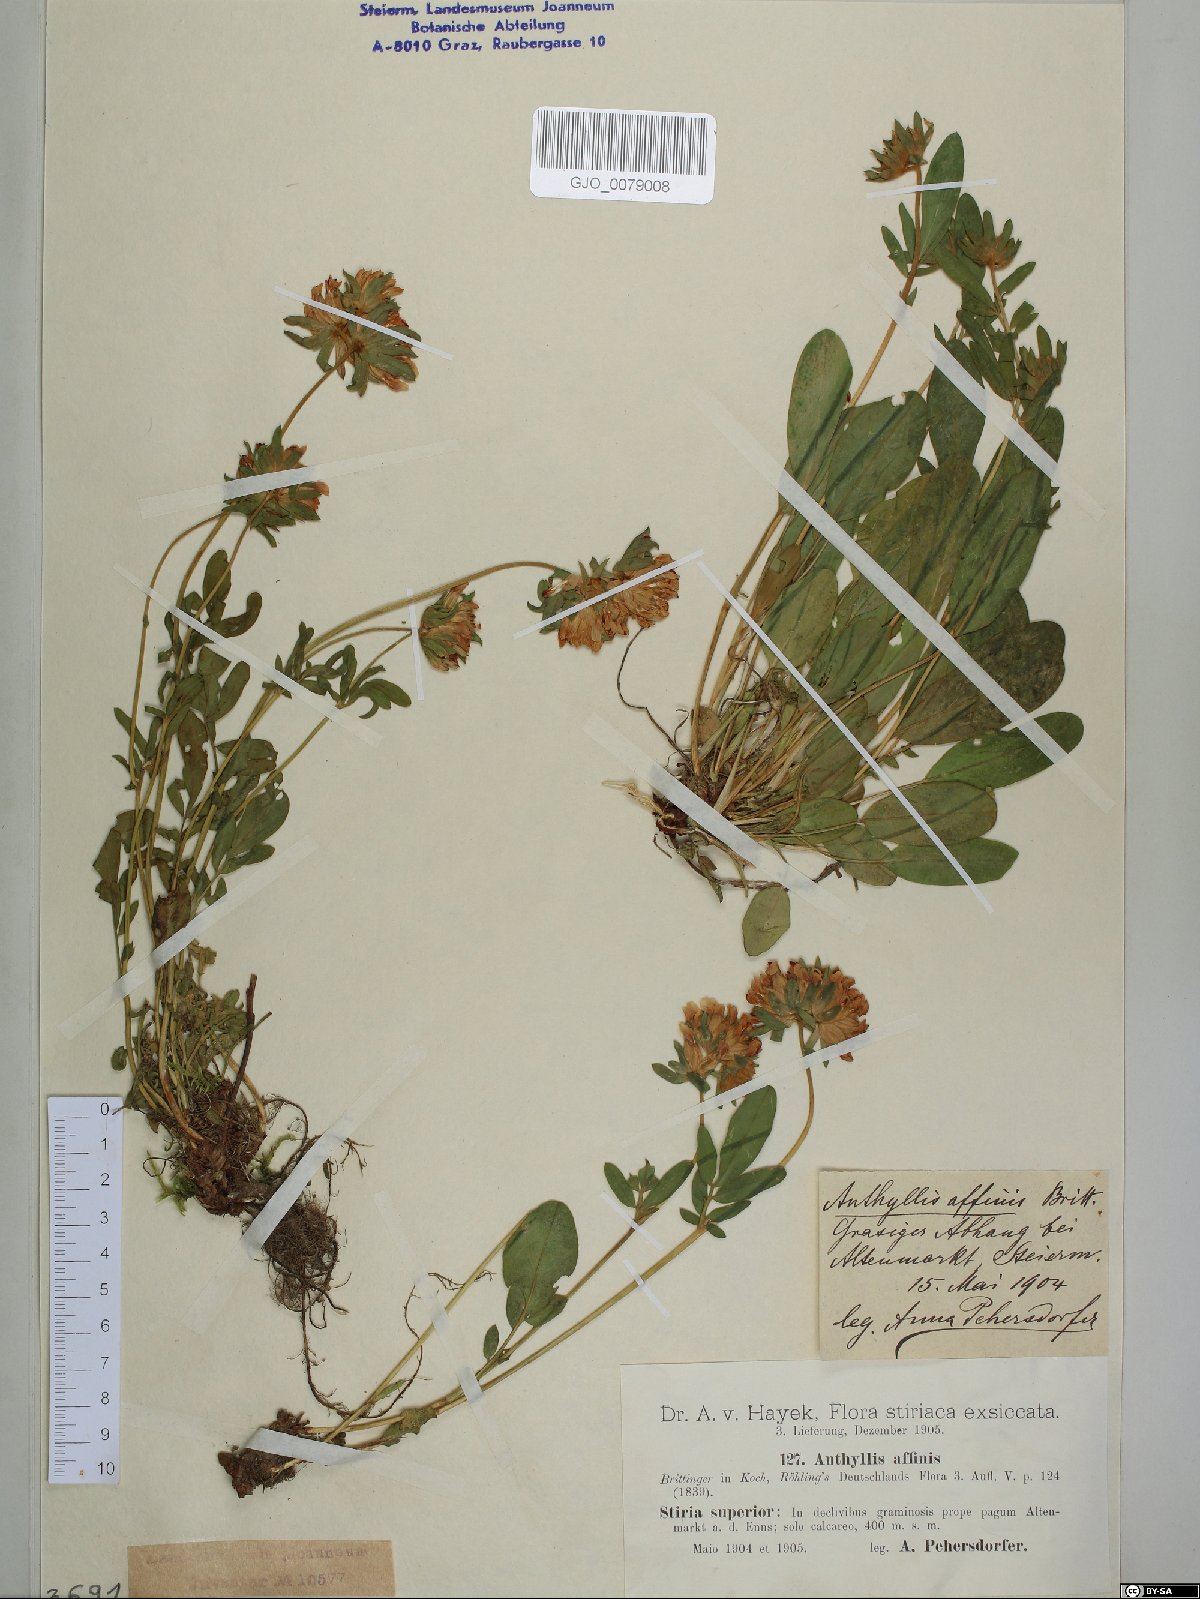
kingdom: Plantae
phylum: Tracheophyta
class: Magnoliopsida
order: Fabales
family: Fabaceae
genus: Anthyllis
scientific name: Anthyllis vulneraria
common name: Kidney vetch
